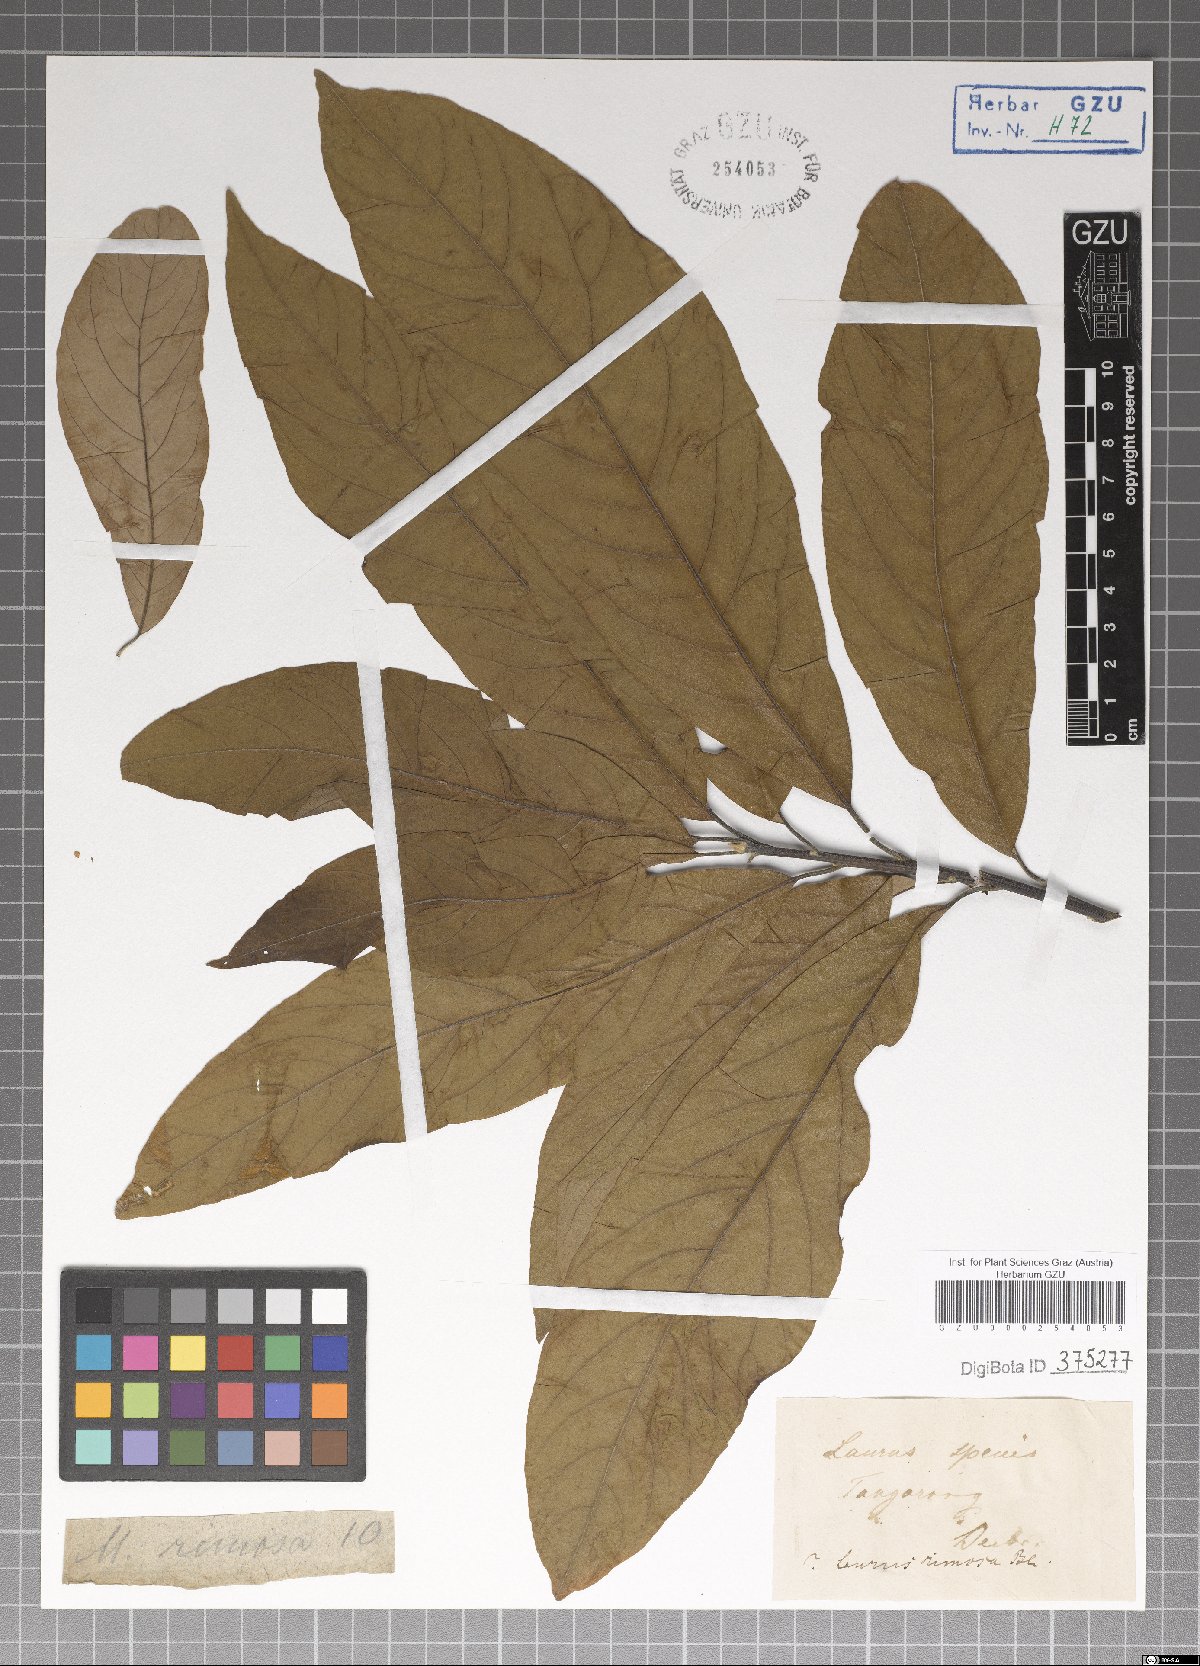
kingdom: Plantae
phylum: Tracheophyta
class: Magnoliopsida
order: Laurales
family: Lauraceae
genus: Machilus
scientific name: Machilus rimosus
